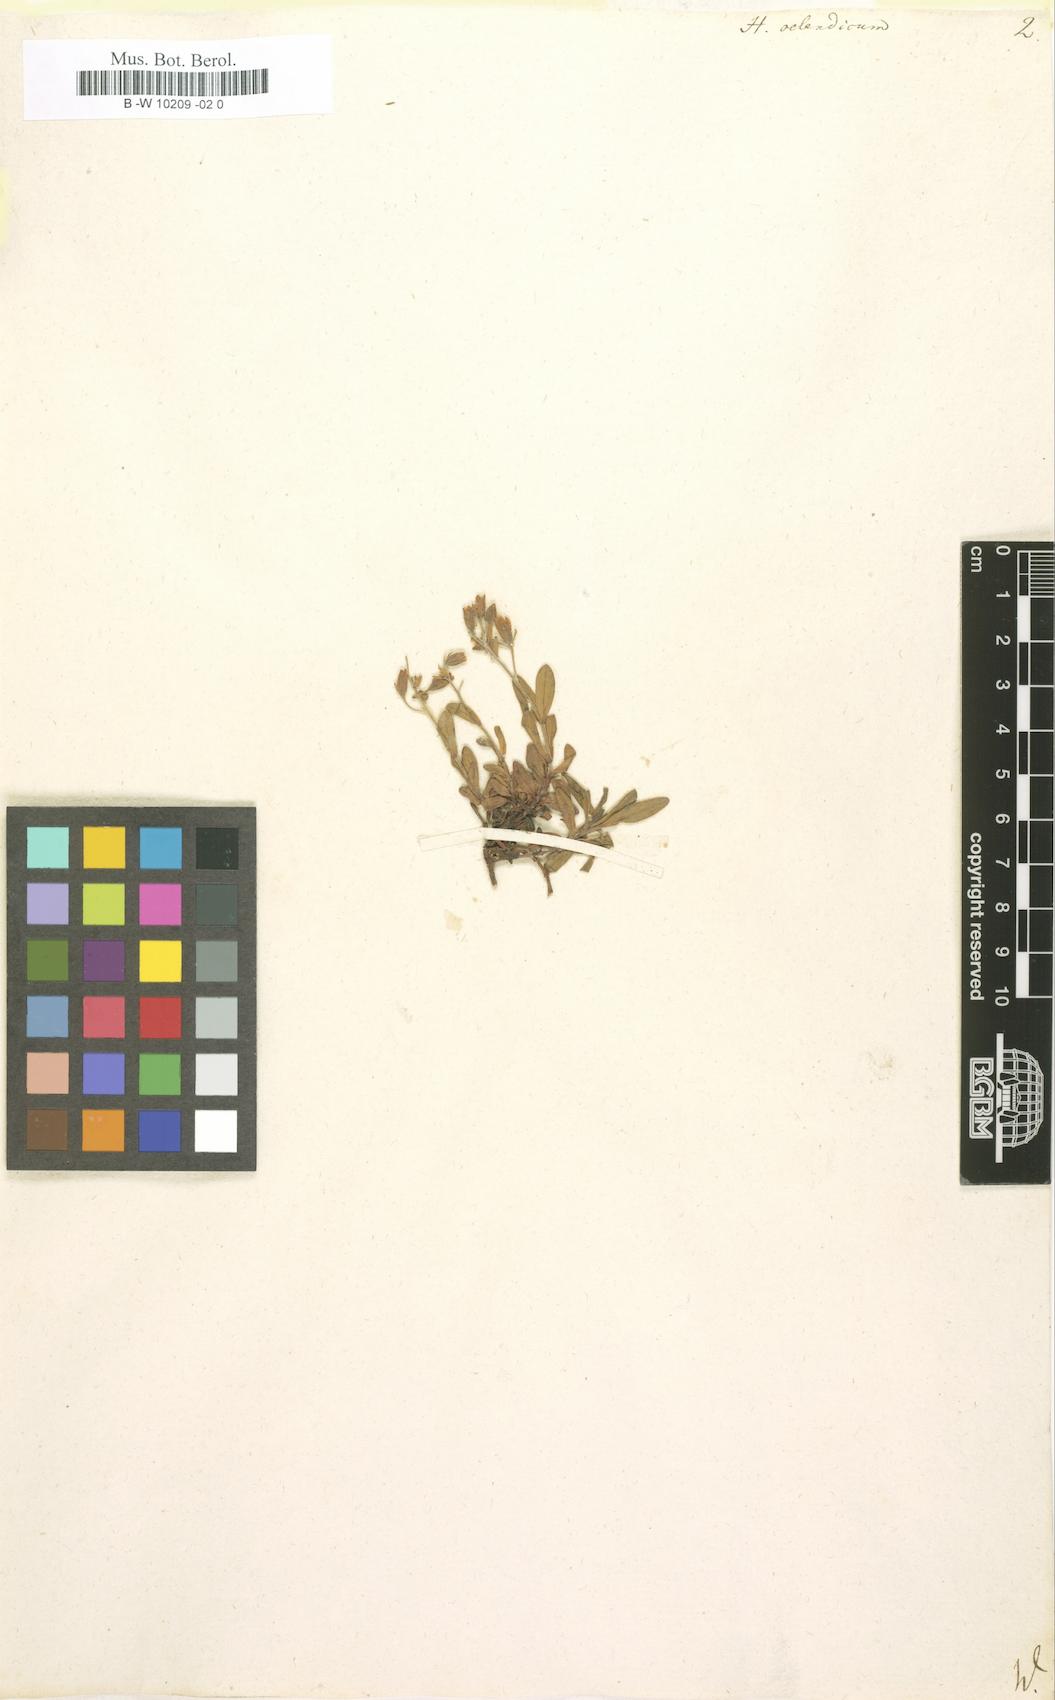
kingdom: Plantae
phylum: Tracheophyta
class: Magnoliopsida
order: Malvales
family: Cistaceae
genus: Helianthemum
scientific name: Helianthemum oelandicum
